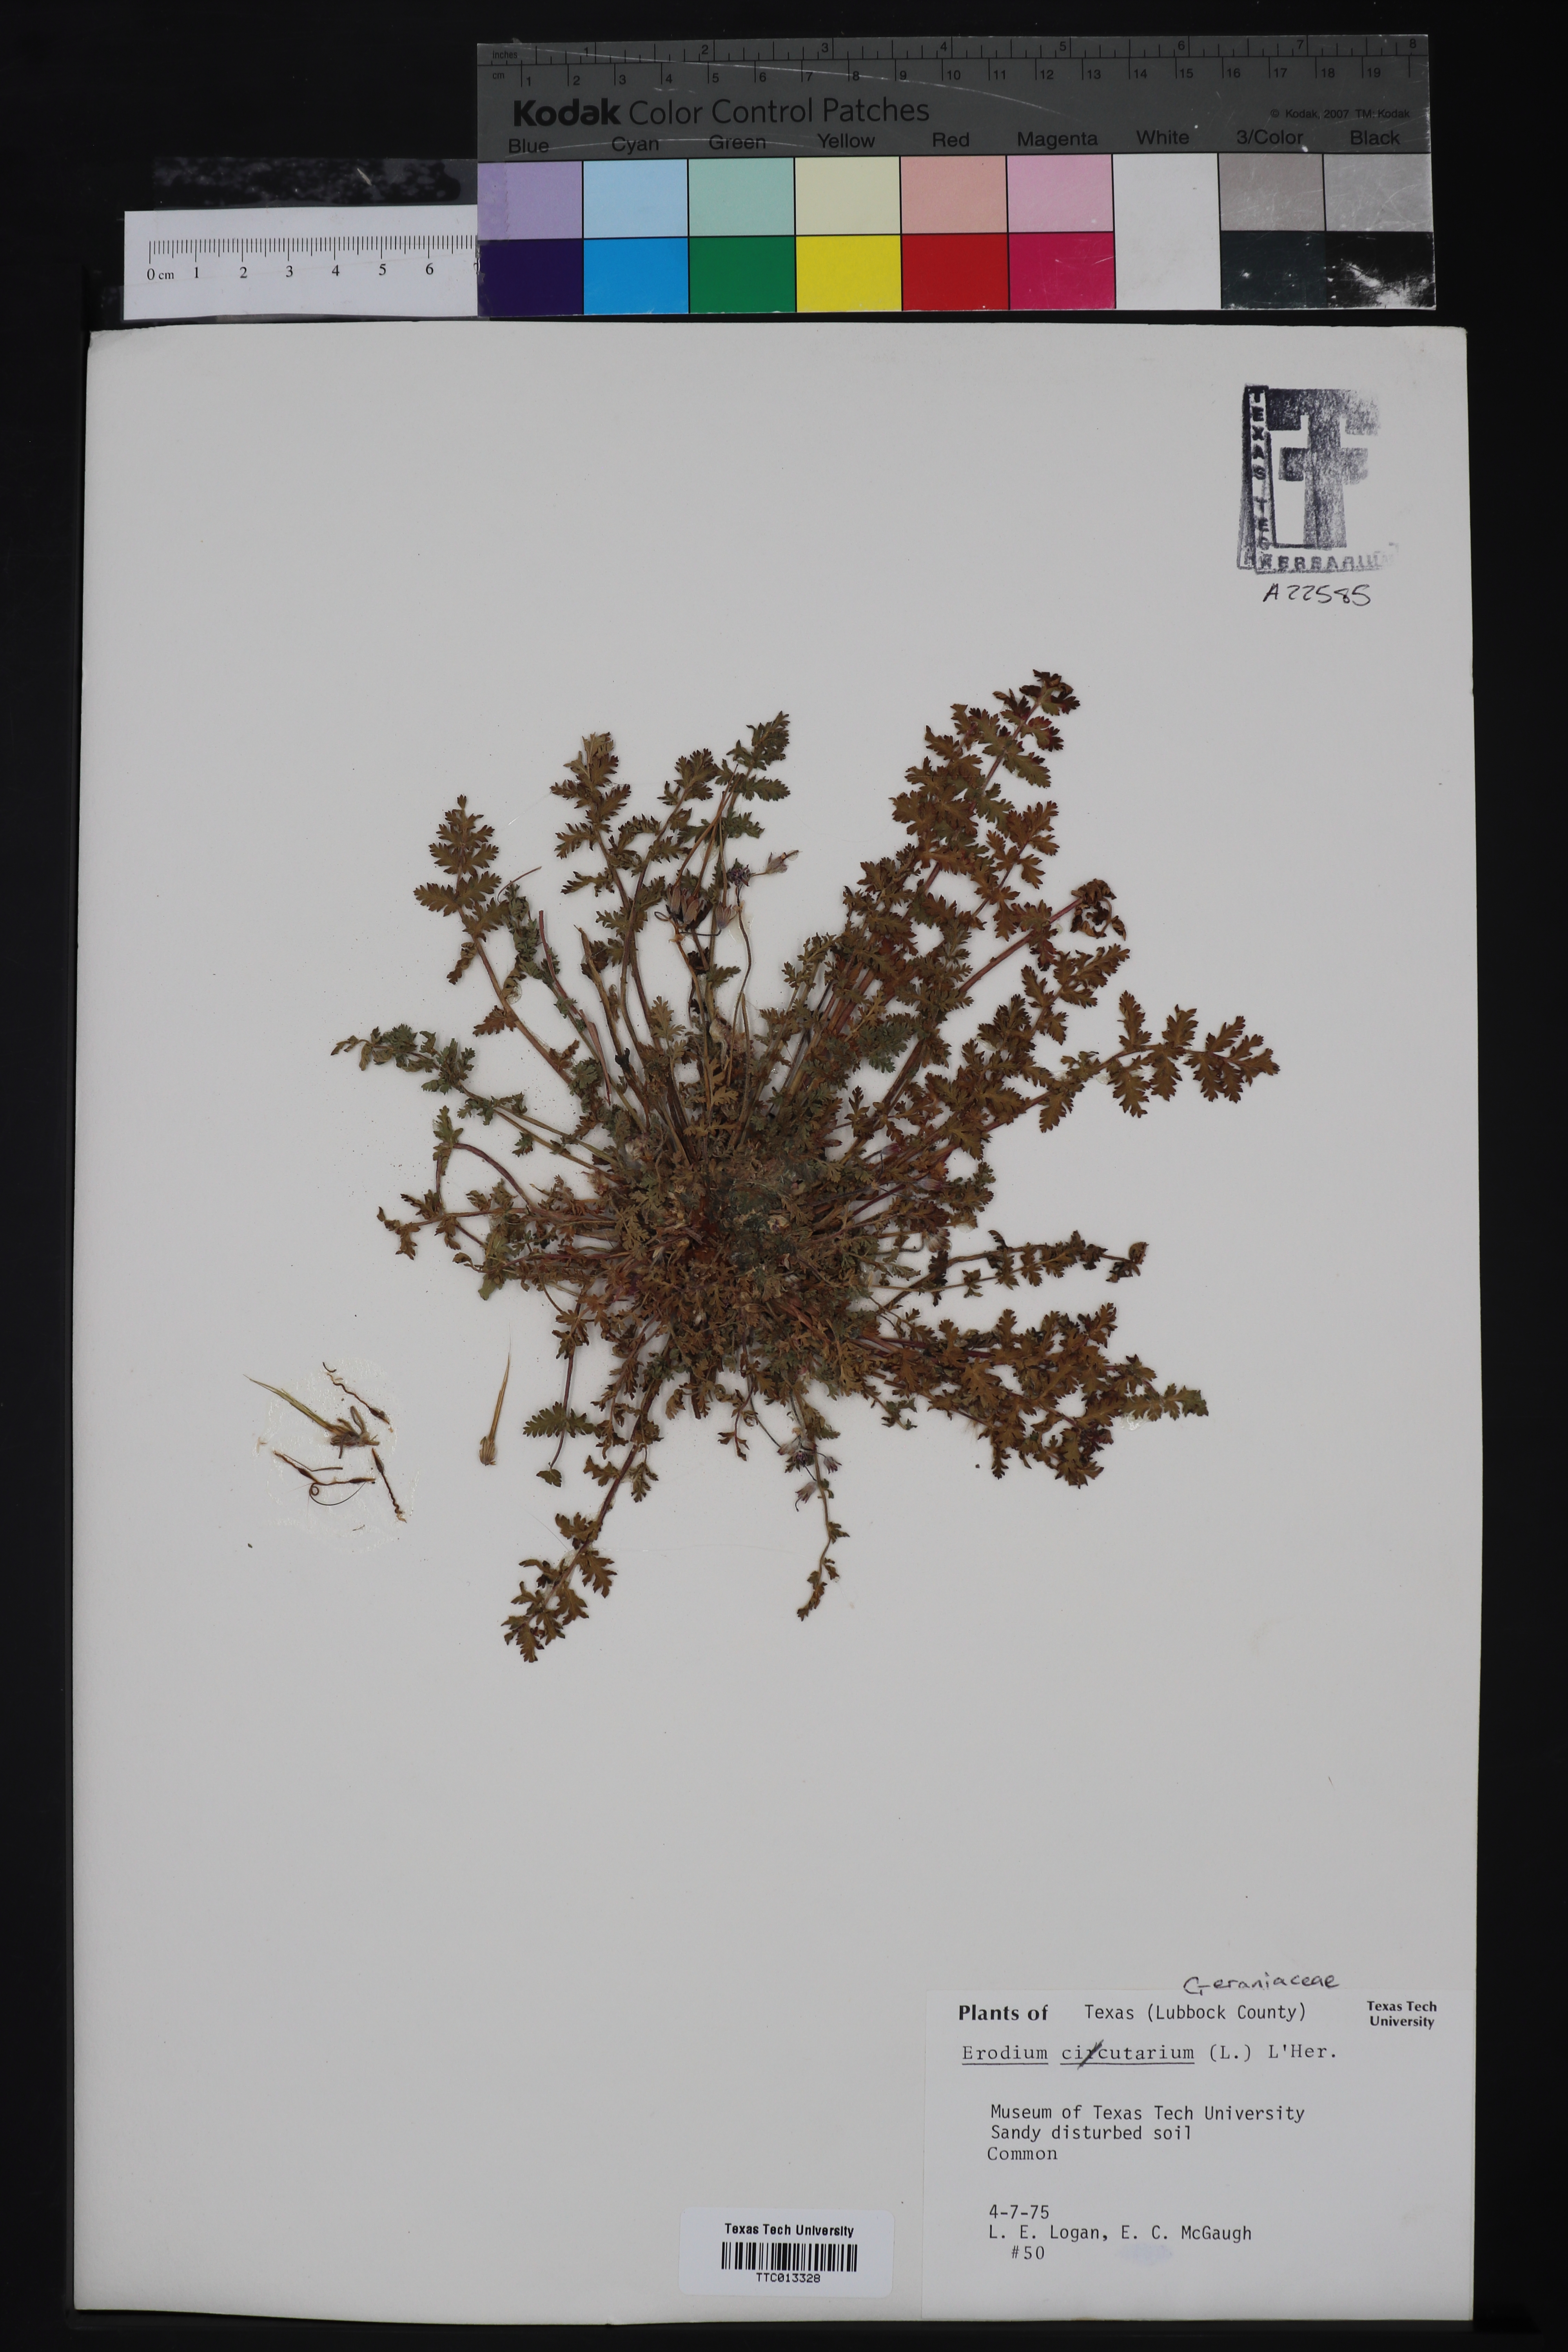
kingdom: Plantae
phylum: Tracheophyta
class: Magnoliopsida
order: Geraniales
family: Geraniaceae
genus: Erodium
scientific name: Erodium cicutarium
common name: Common stork's-bill
